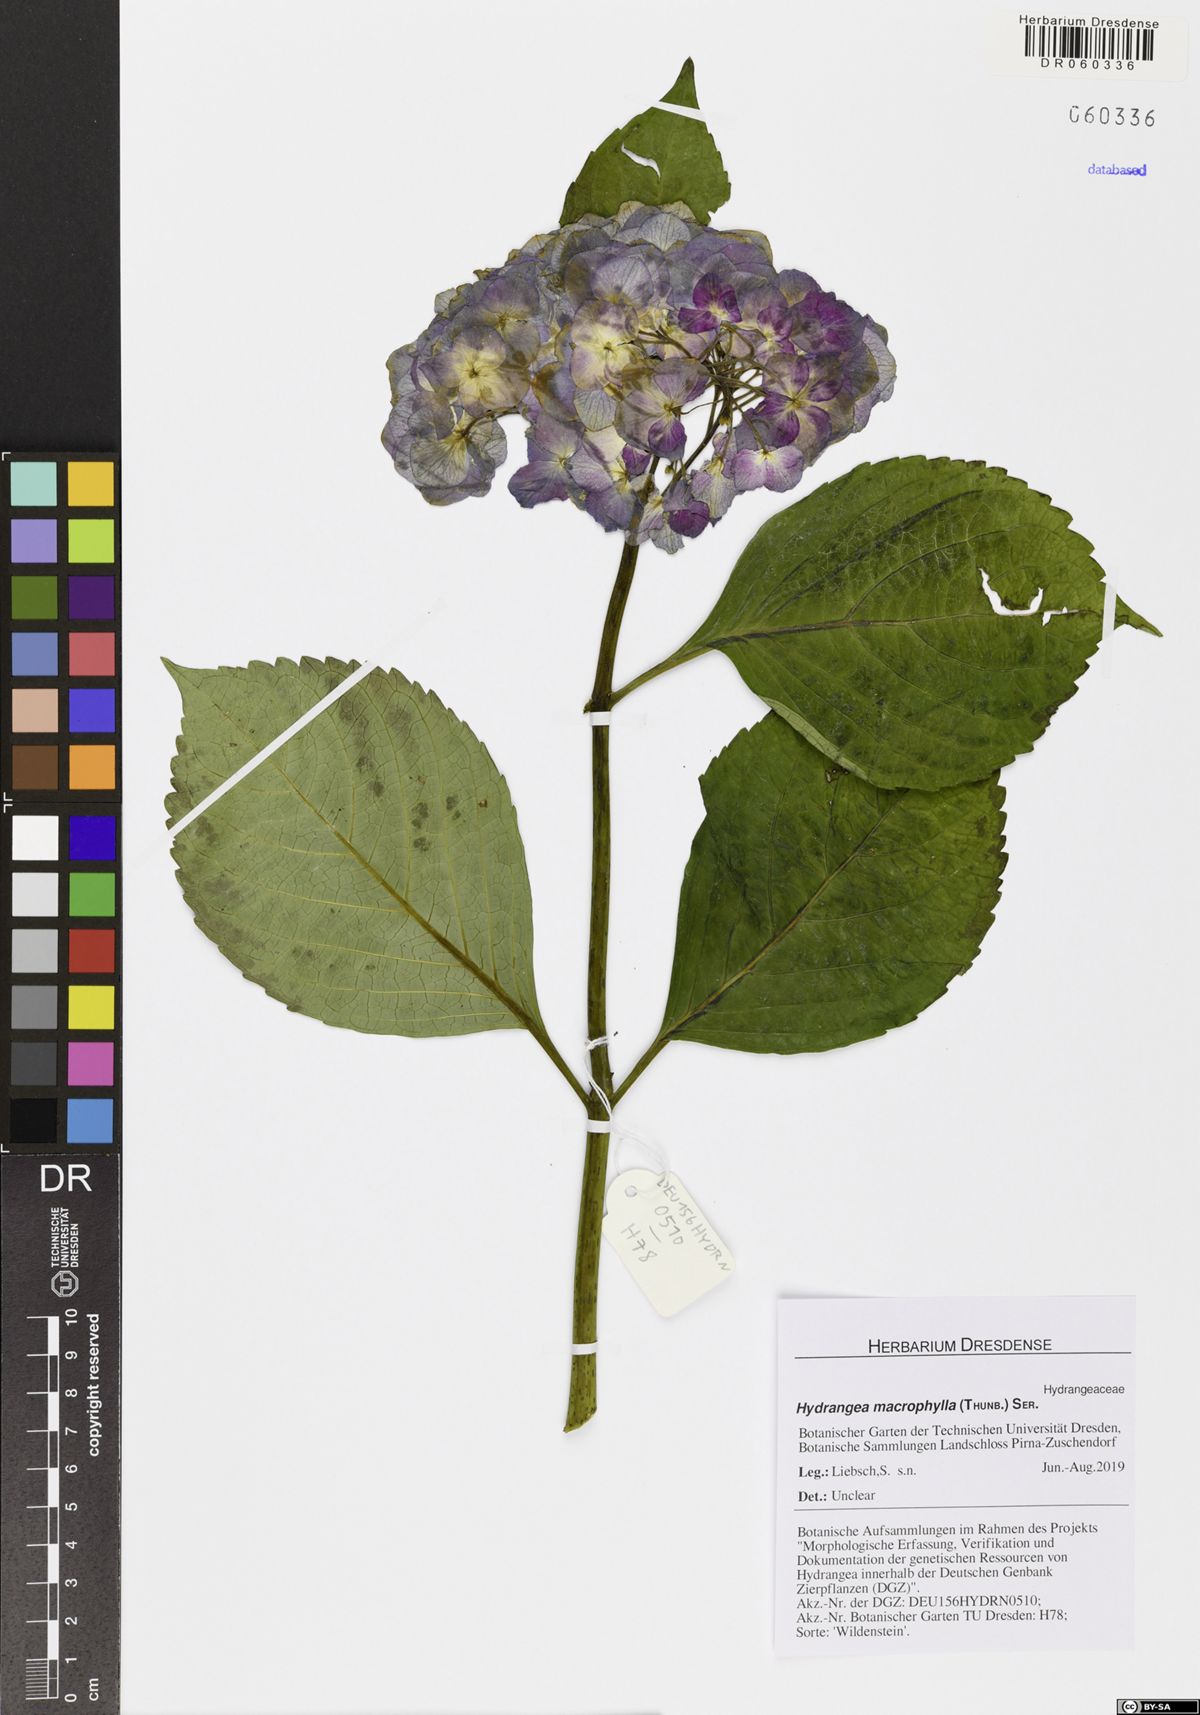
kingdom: Plantae
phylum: Tracheophyta
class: Magnoliopsida
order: Cornales
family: Hydrangeaceae
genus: Hydrangea
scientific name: Hydrangea macrophylla
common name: Hydrangea
